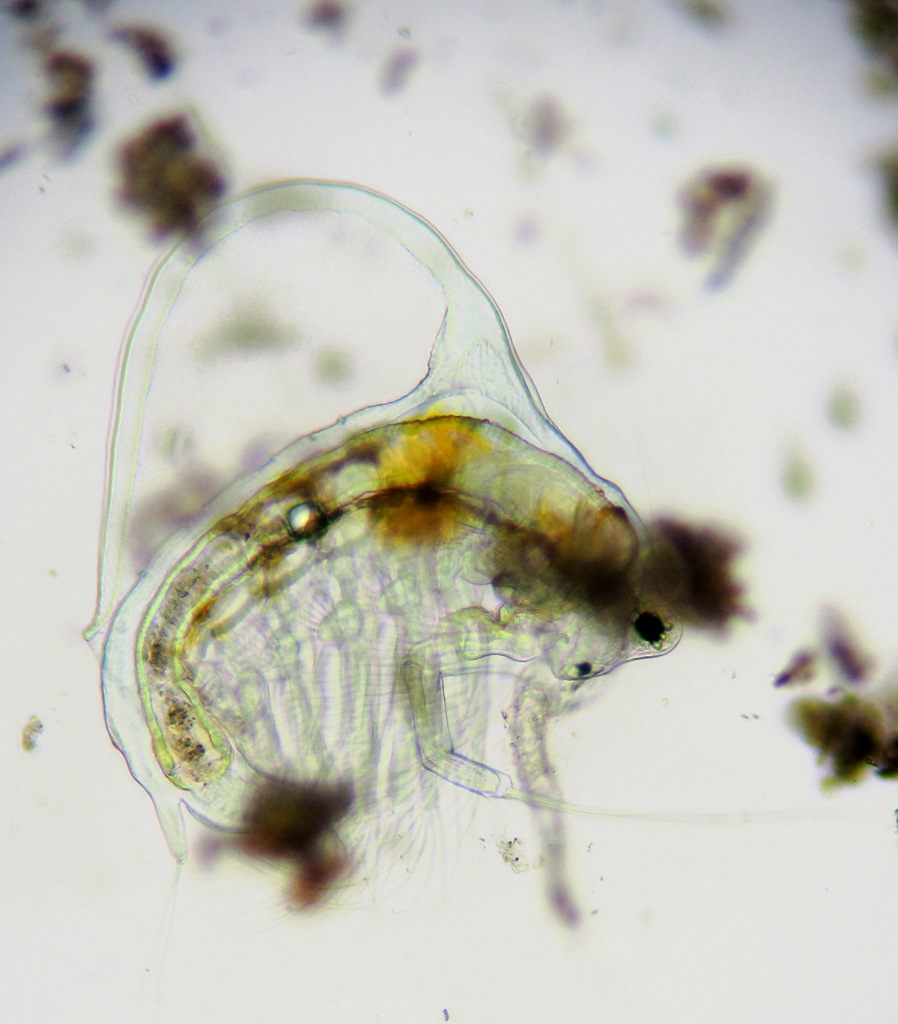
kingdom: Animalia
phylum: Arthropoda
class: Branchiopoda
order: Diplostraca
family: Holopediidae
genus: Holopedium
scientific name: Holopedium gibberum
